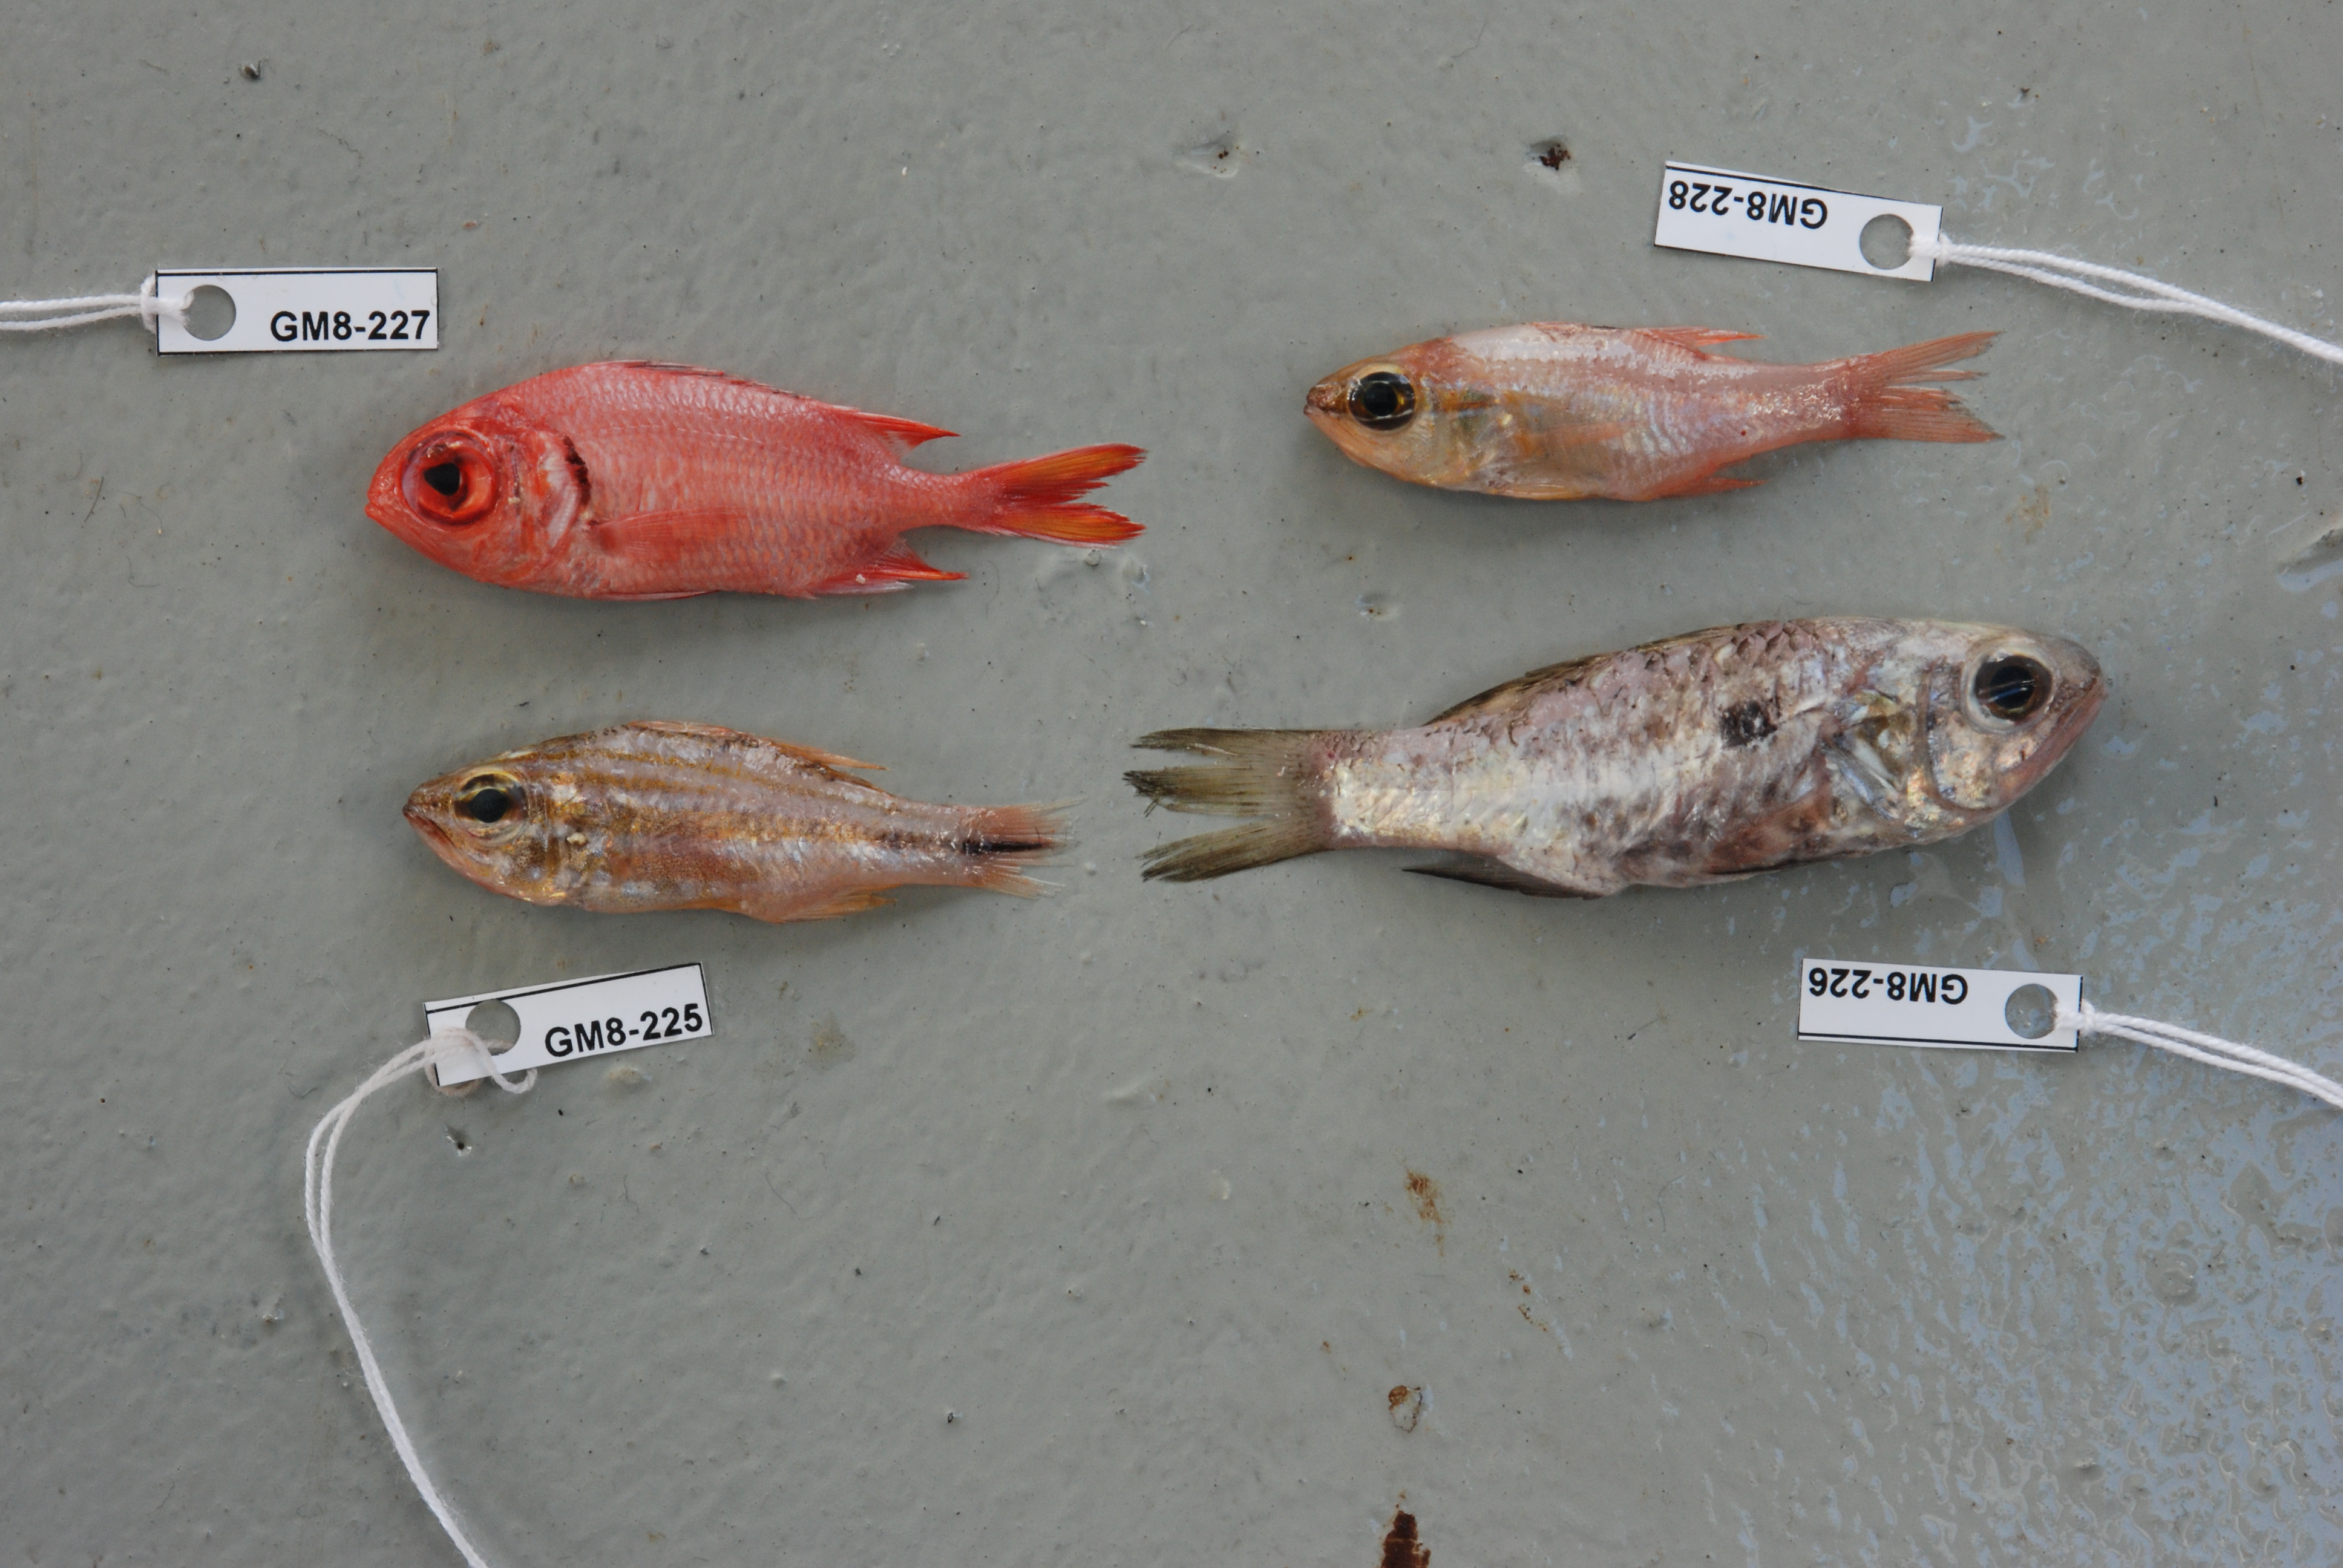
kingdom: Animalia
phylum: Chordata
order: Perciformes
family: Apogonidae
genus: Jaydia
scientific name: Jaydia quartus
